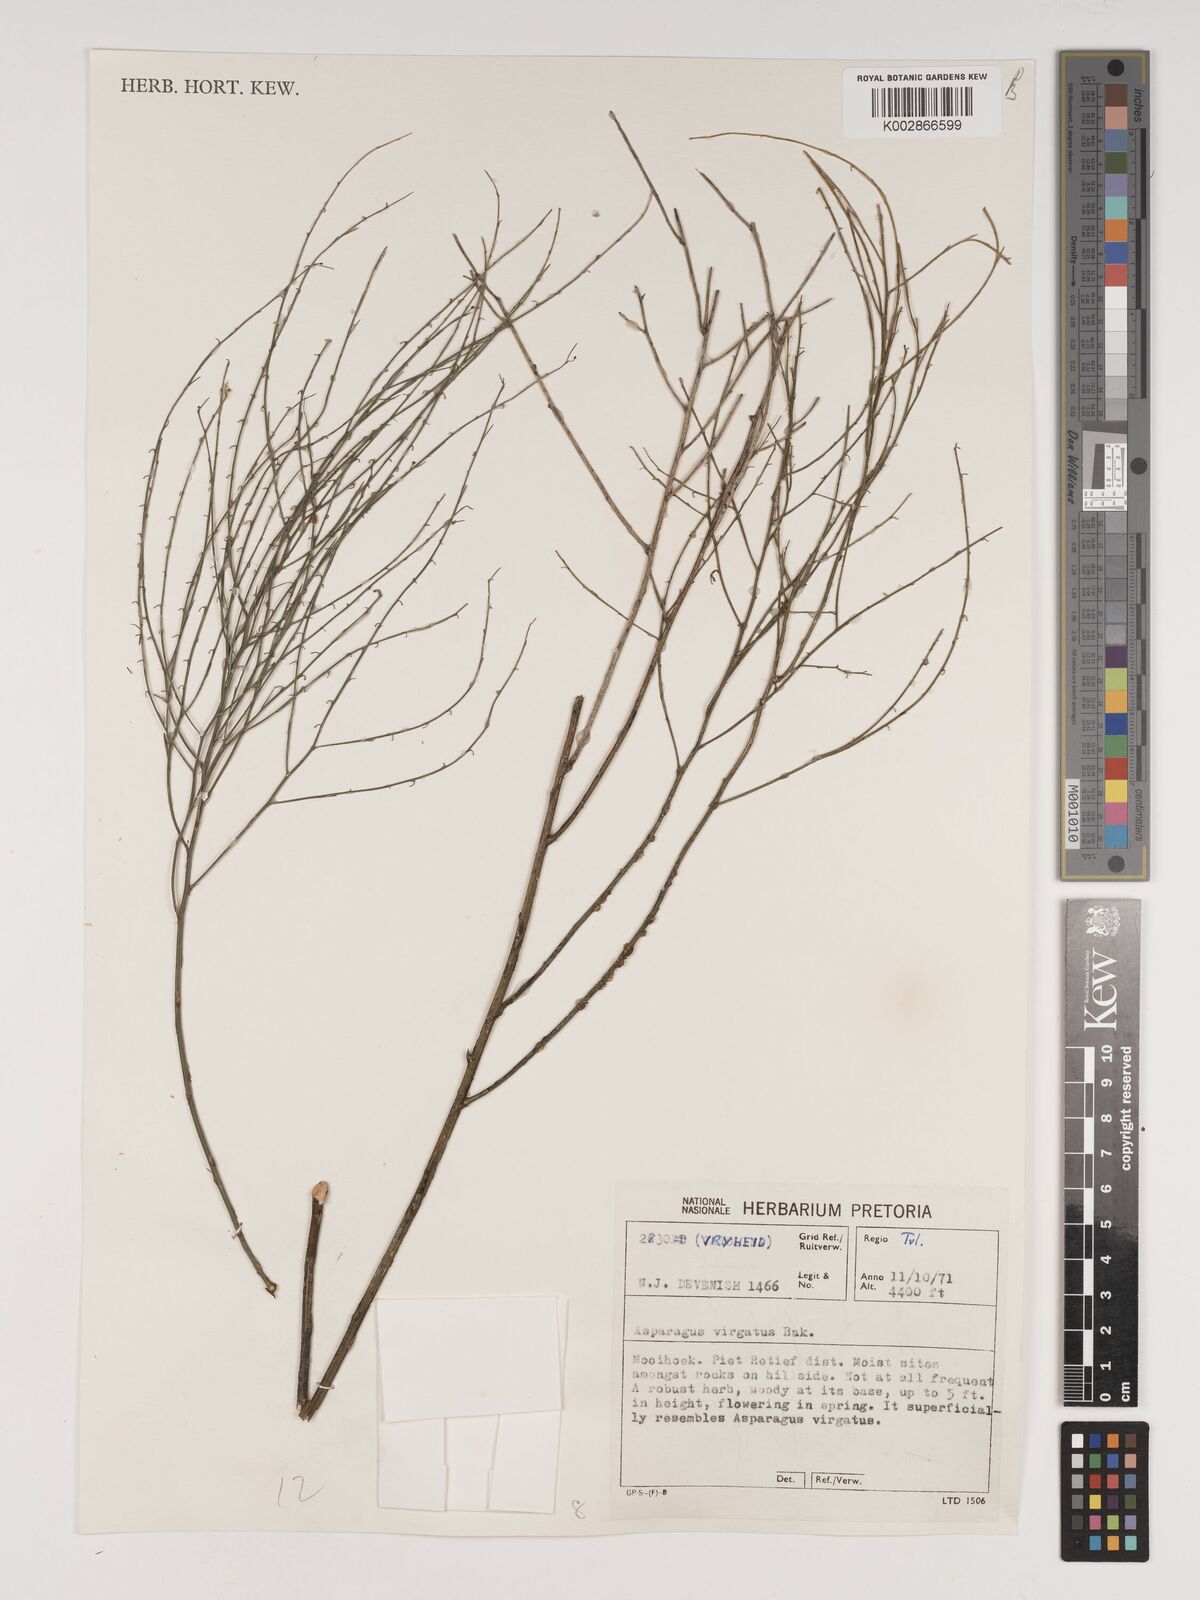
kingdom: Plantae
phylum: Tracheophyta
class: Liliopsida
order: Asparagales
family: Asparagaceae
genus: Asparagus
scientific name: Asparagus virgatus
